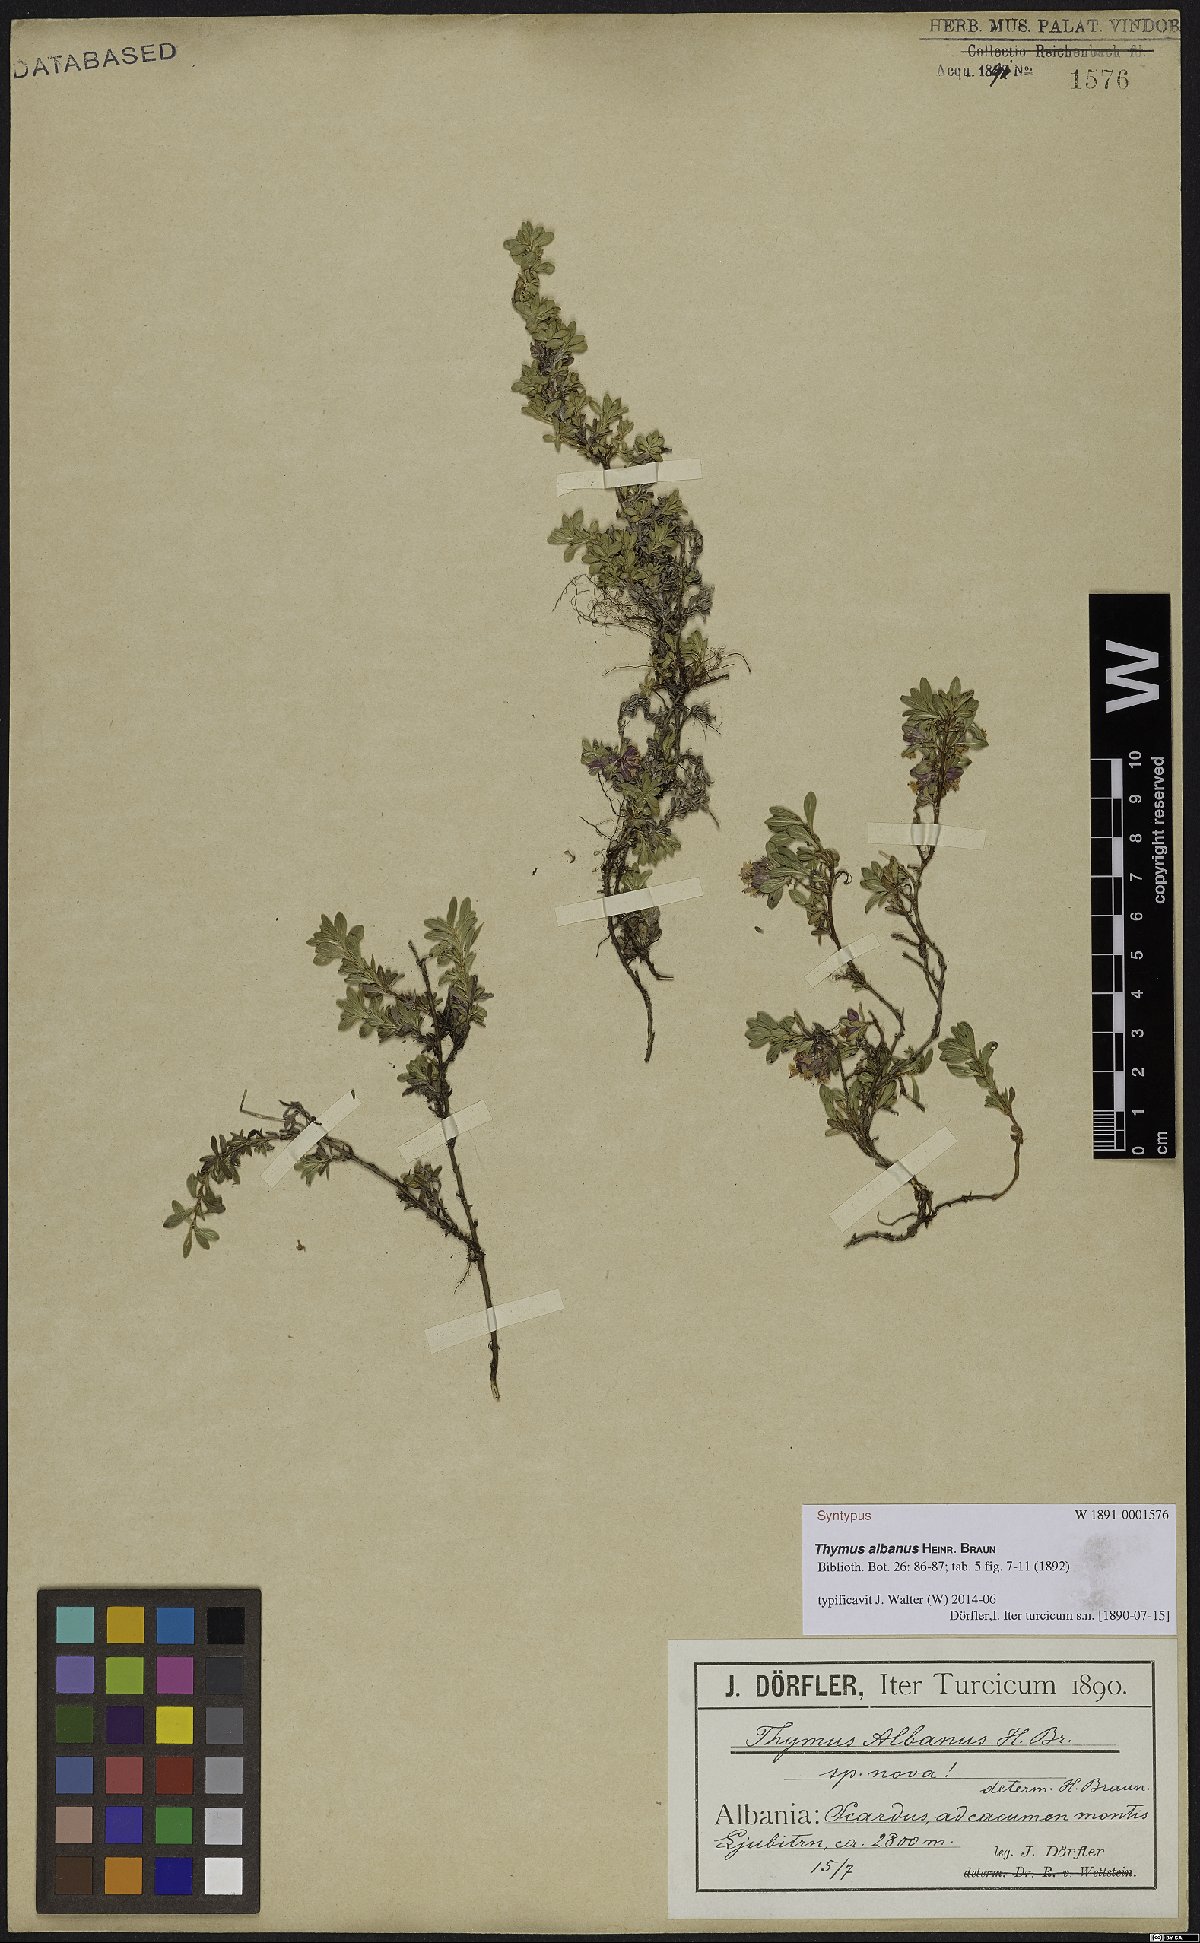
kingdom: Plantae
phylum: Tracheophyta
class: Magnoliopsida
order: Lamiales
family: Lamiaceae
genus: Thymus
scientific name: Thymus albanus
